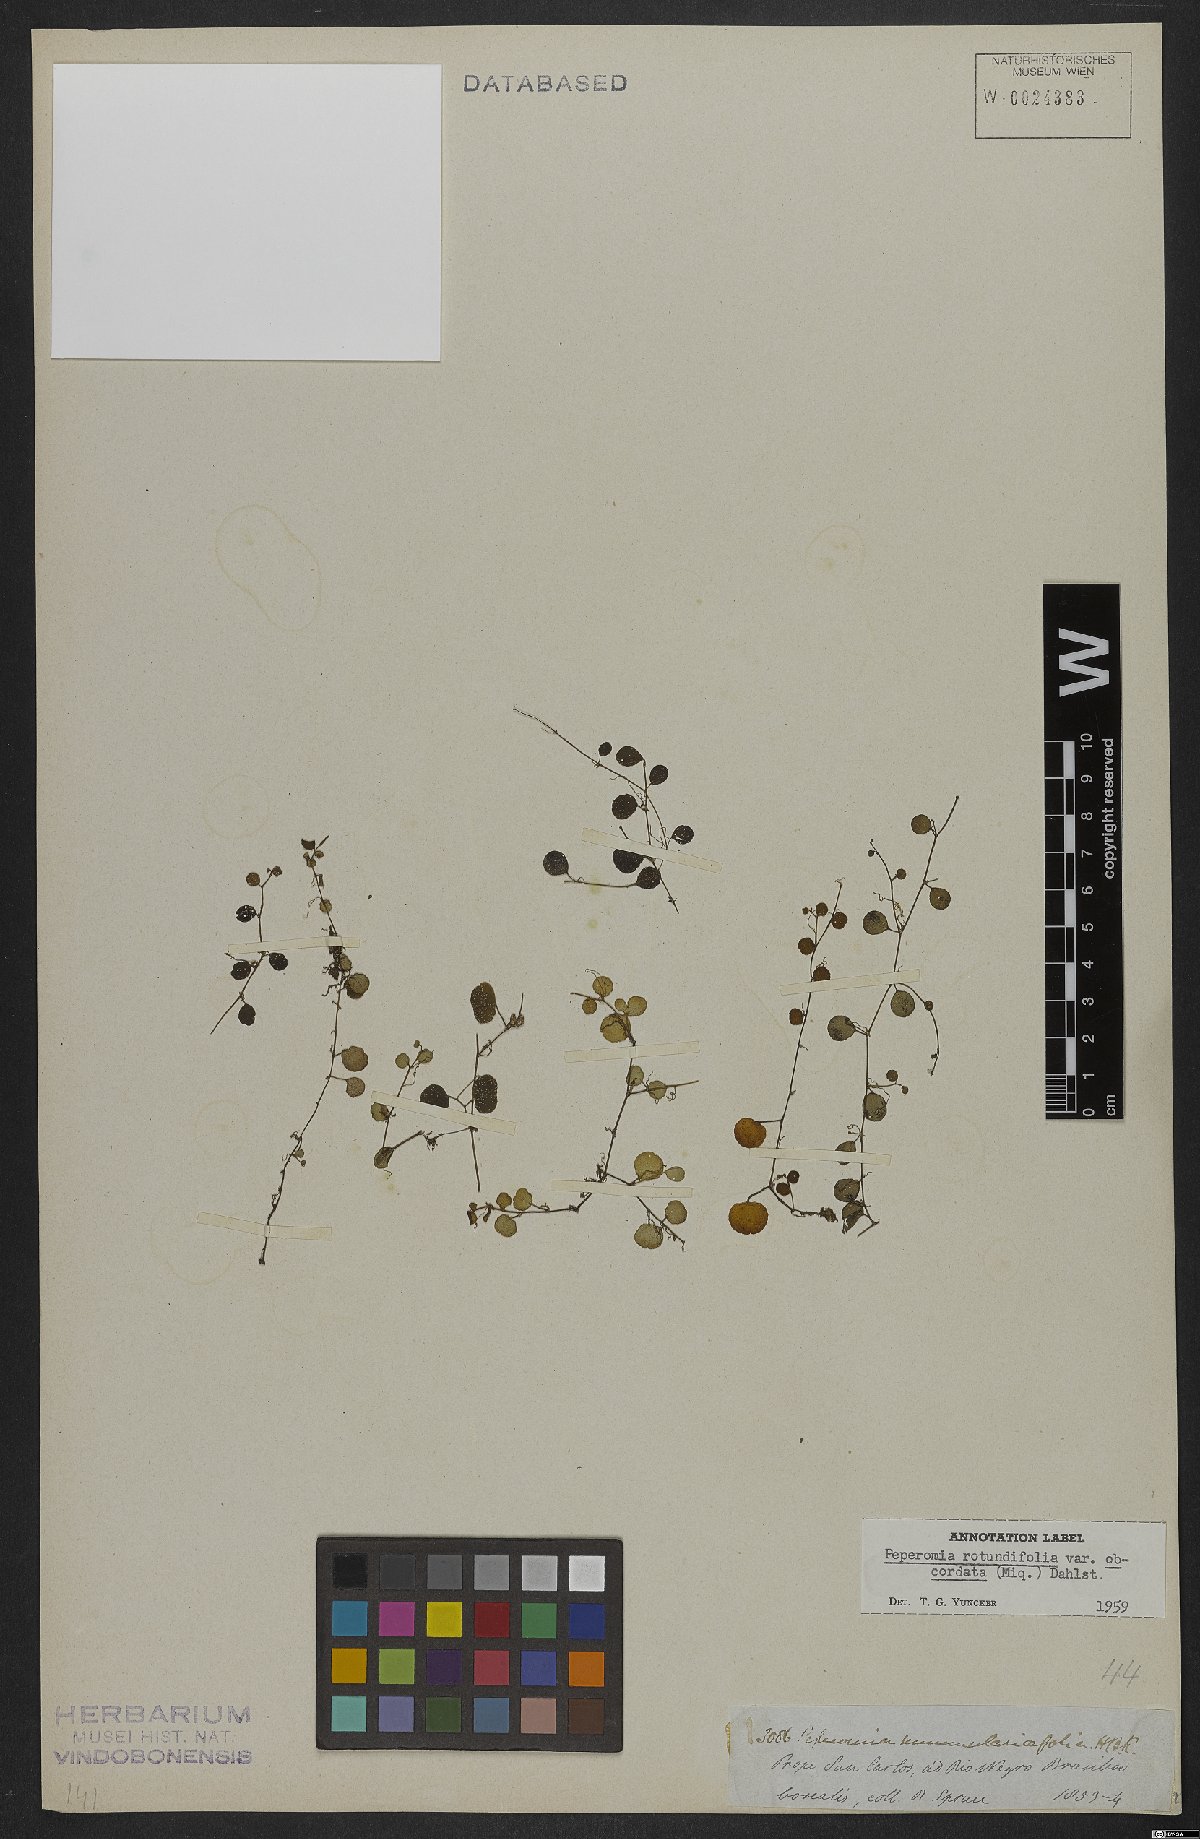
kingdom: Plantae
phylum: Tracheophyta
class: Magnoliopsida
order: Piperales
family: Piperaceae
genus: Peperomia
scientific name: Peperomia rotundifolia
